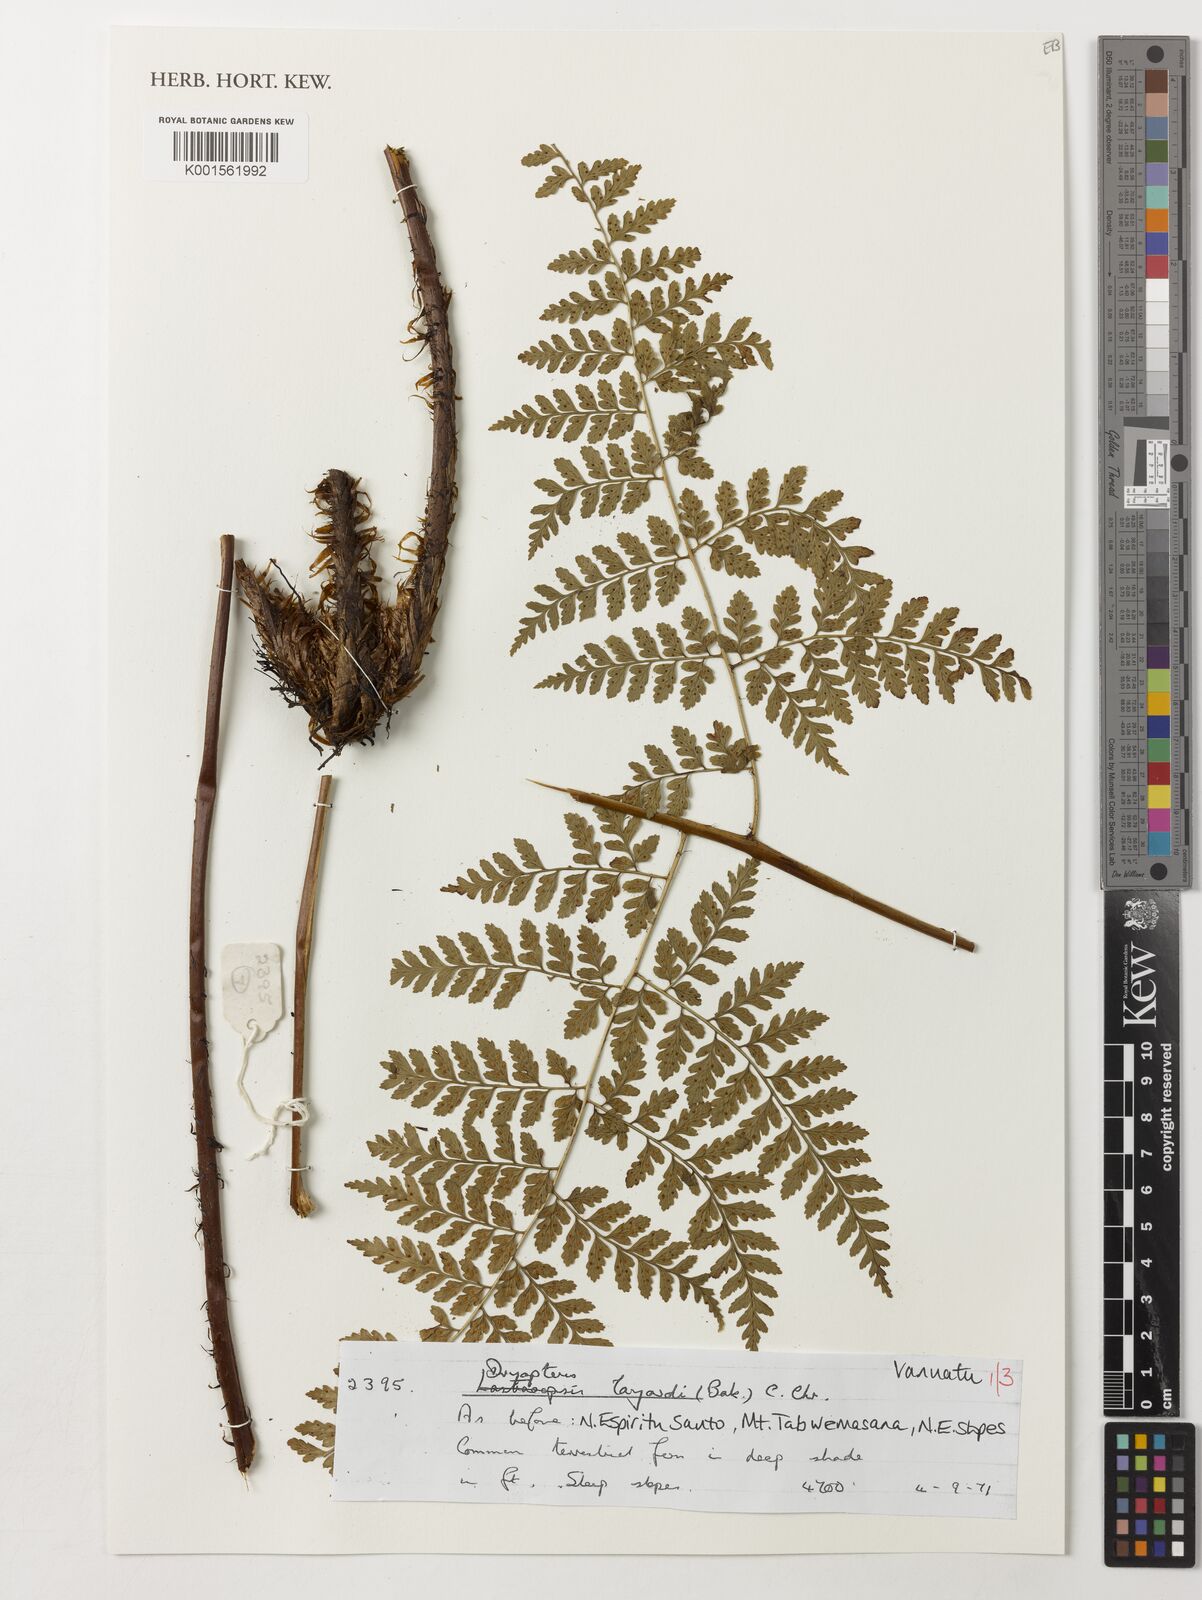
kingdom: Plantae
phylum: Tracheophyta
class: Polypodiopsida
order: Polypodiales
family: Dryopteridaceae
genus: Dryopteris
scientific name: Dryopteris aneitensis
